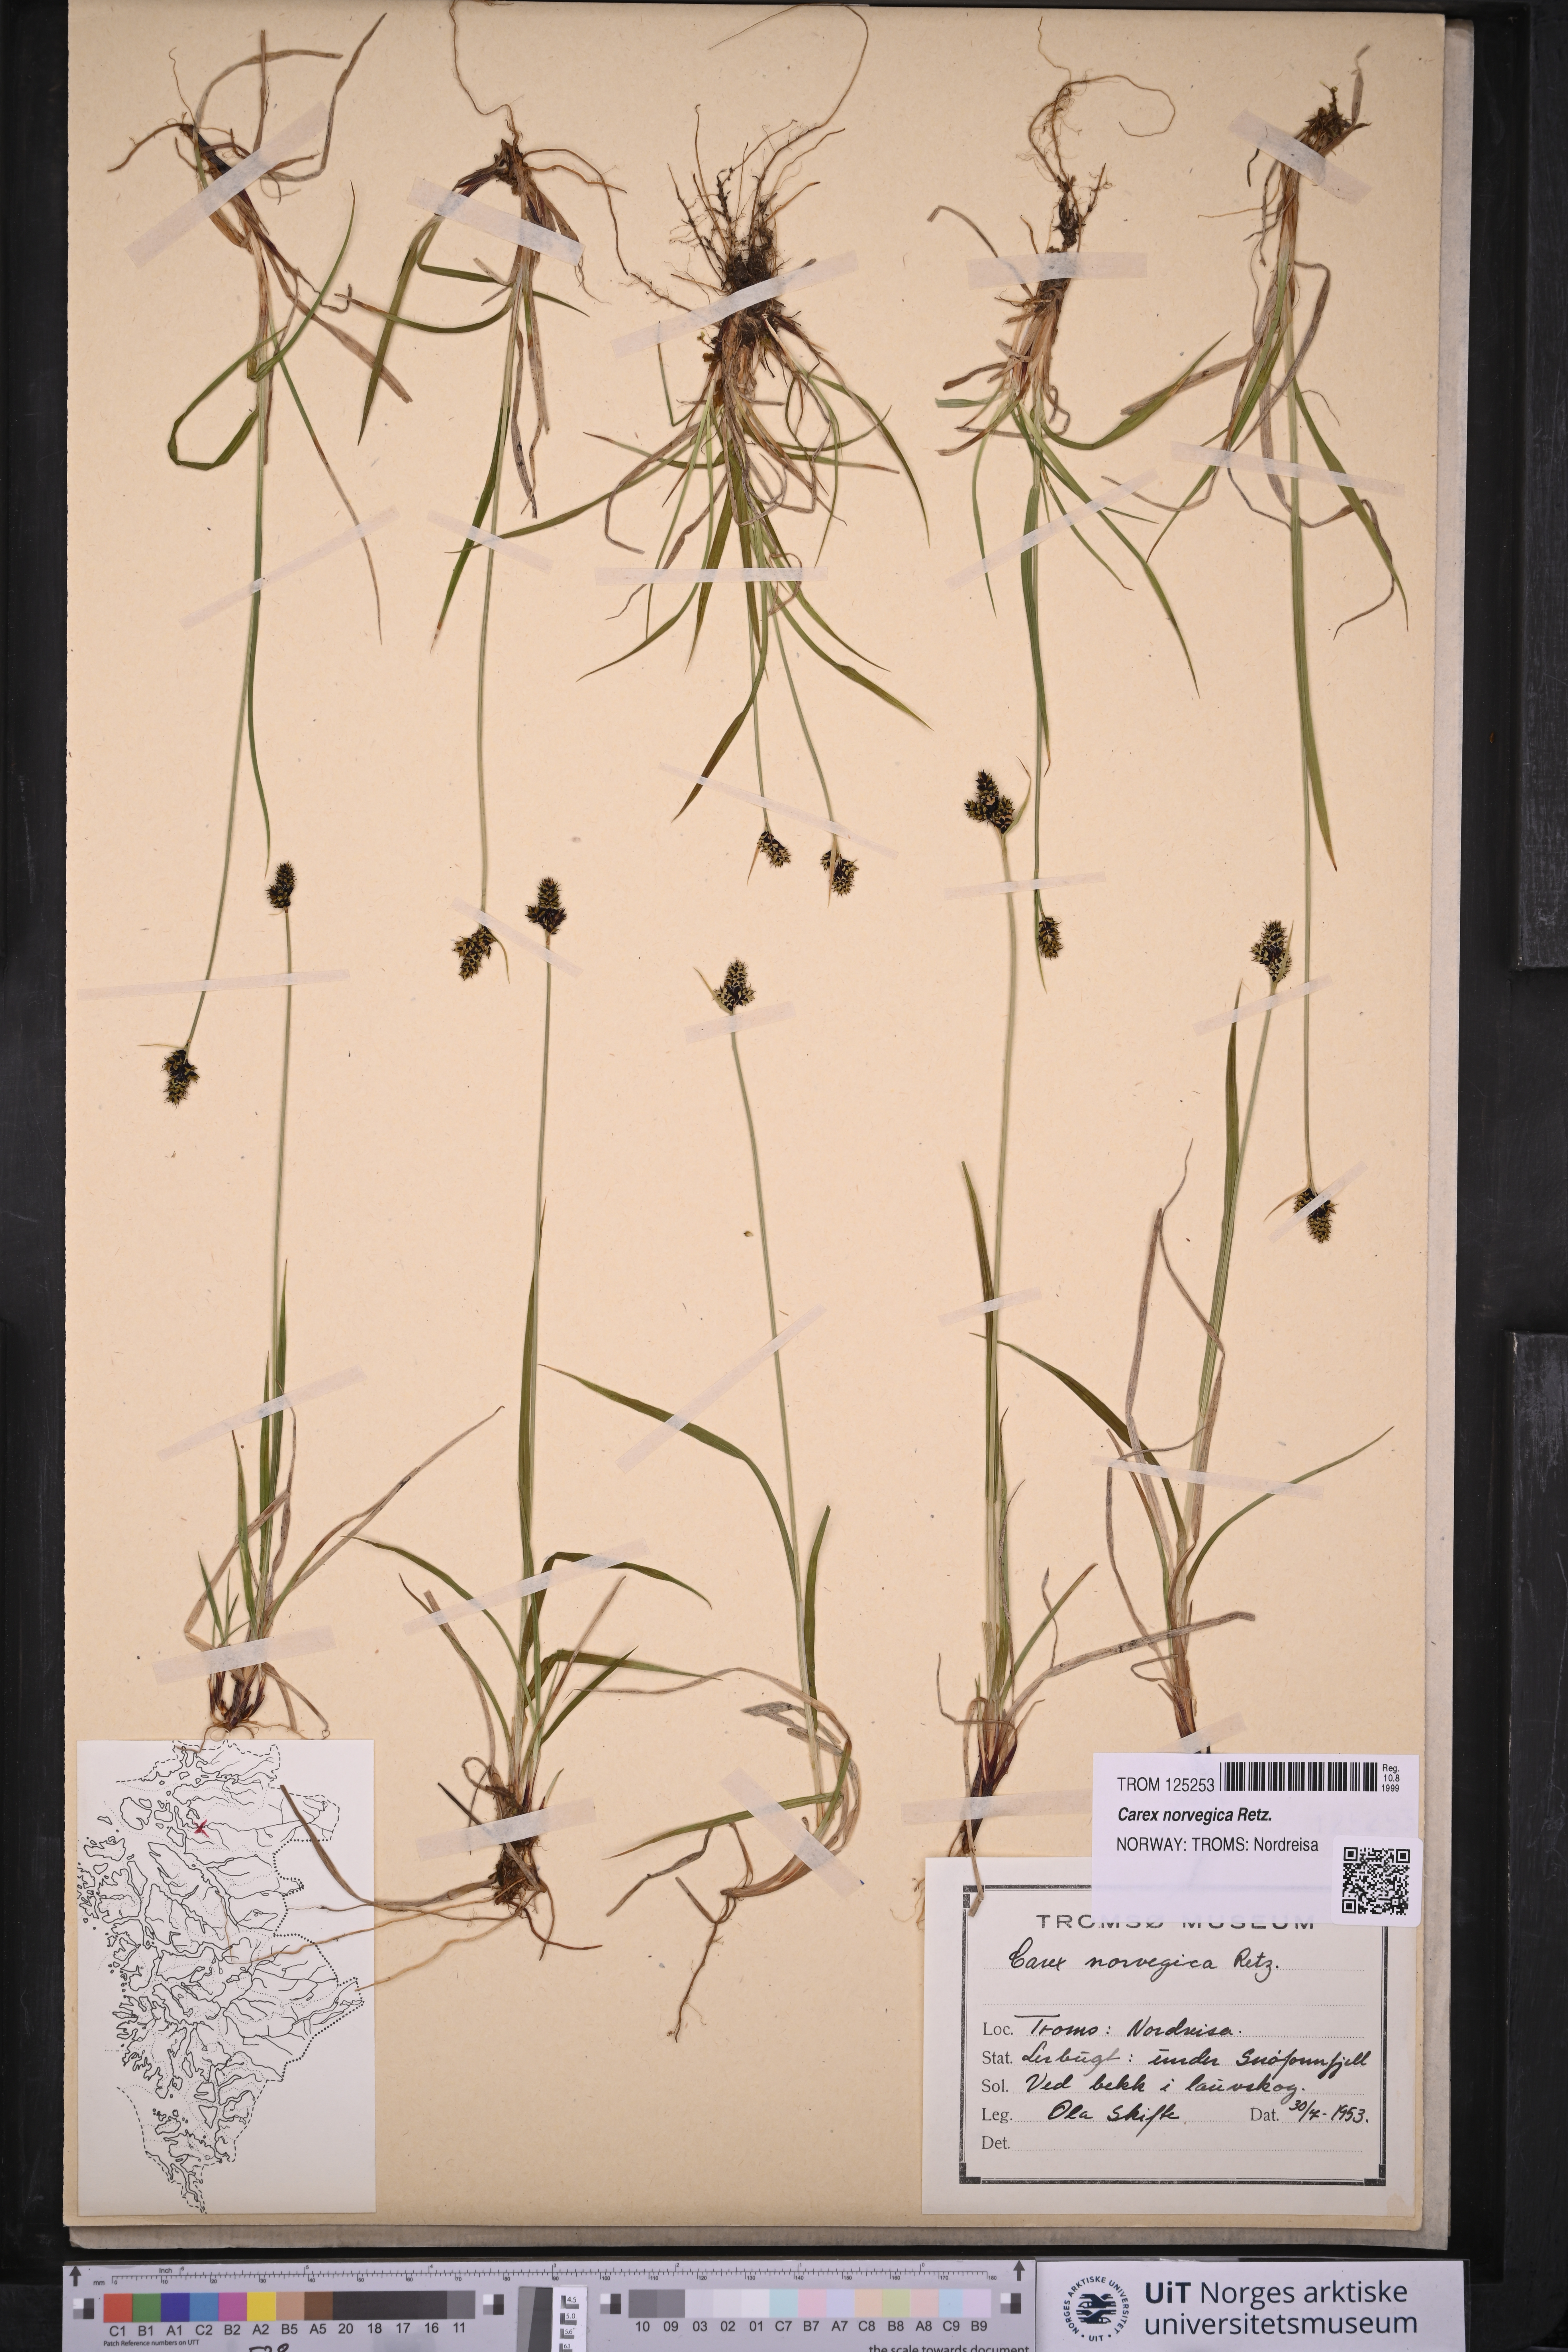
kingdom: Plantae
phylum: Tracheophyta
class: Liliopsida
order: Poales
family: Cyperaceae
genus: Carex
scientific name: Carex norvegica
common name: Close-headed alpine-sedge
